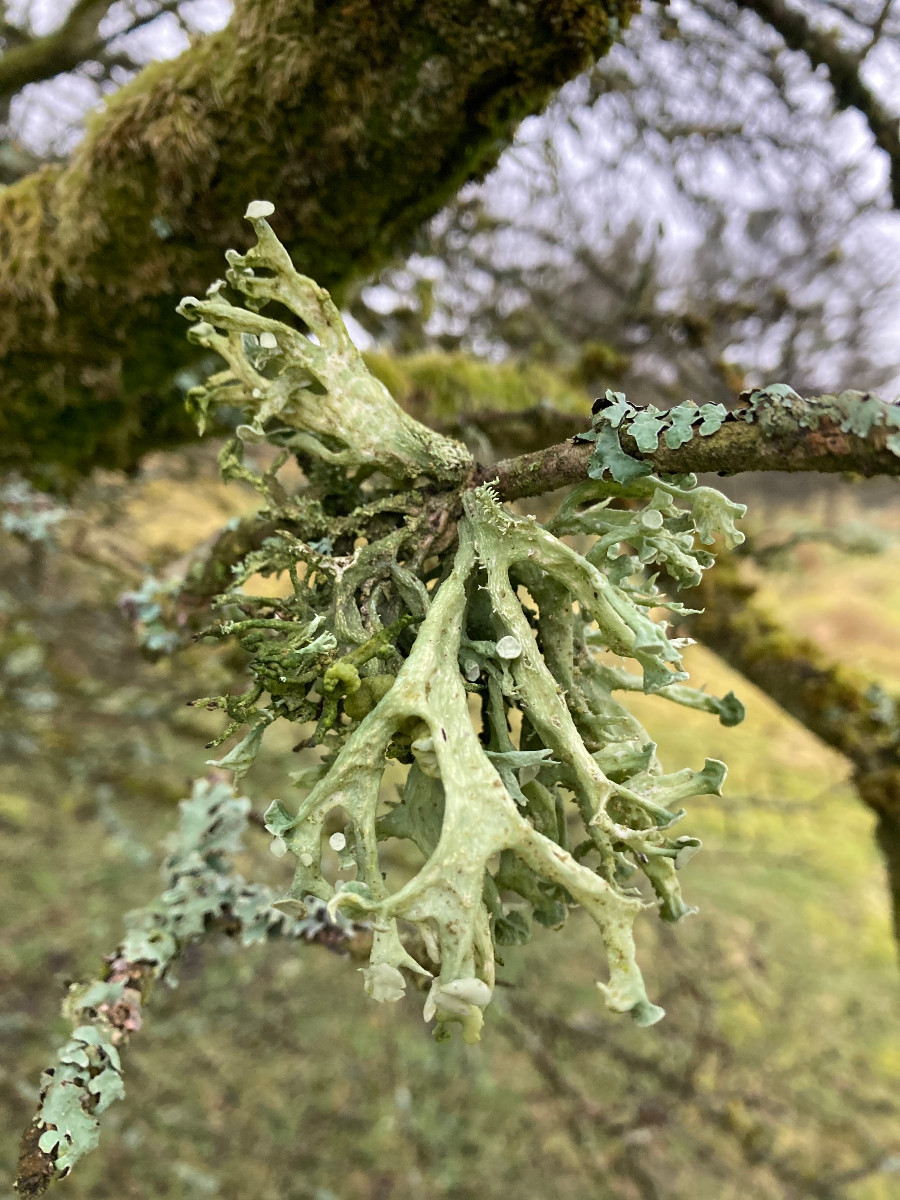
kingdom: Fungi
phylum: Ascomycota
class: Lecanoromycetes
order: Lecanorales
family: Ramalinaceae
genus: Ramalina
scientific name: Ramalina fastigiata
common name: tue-grenlav
